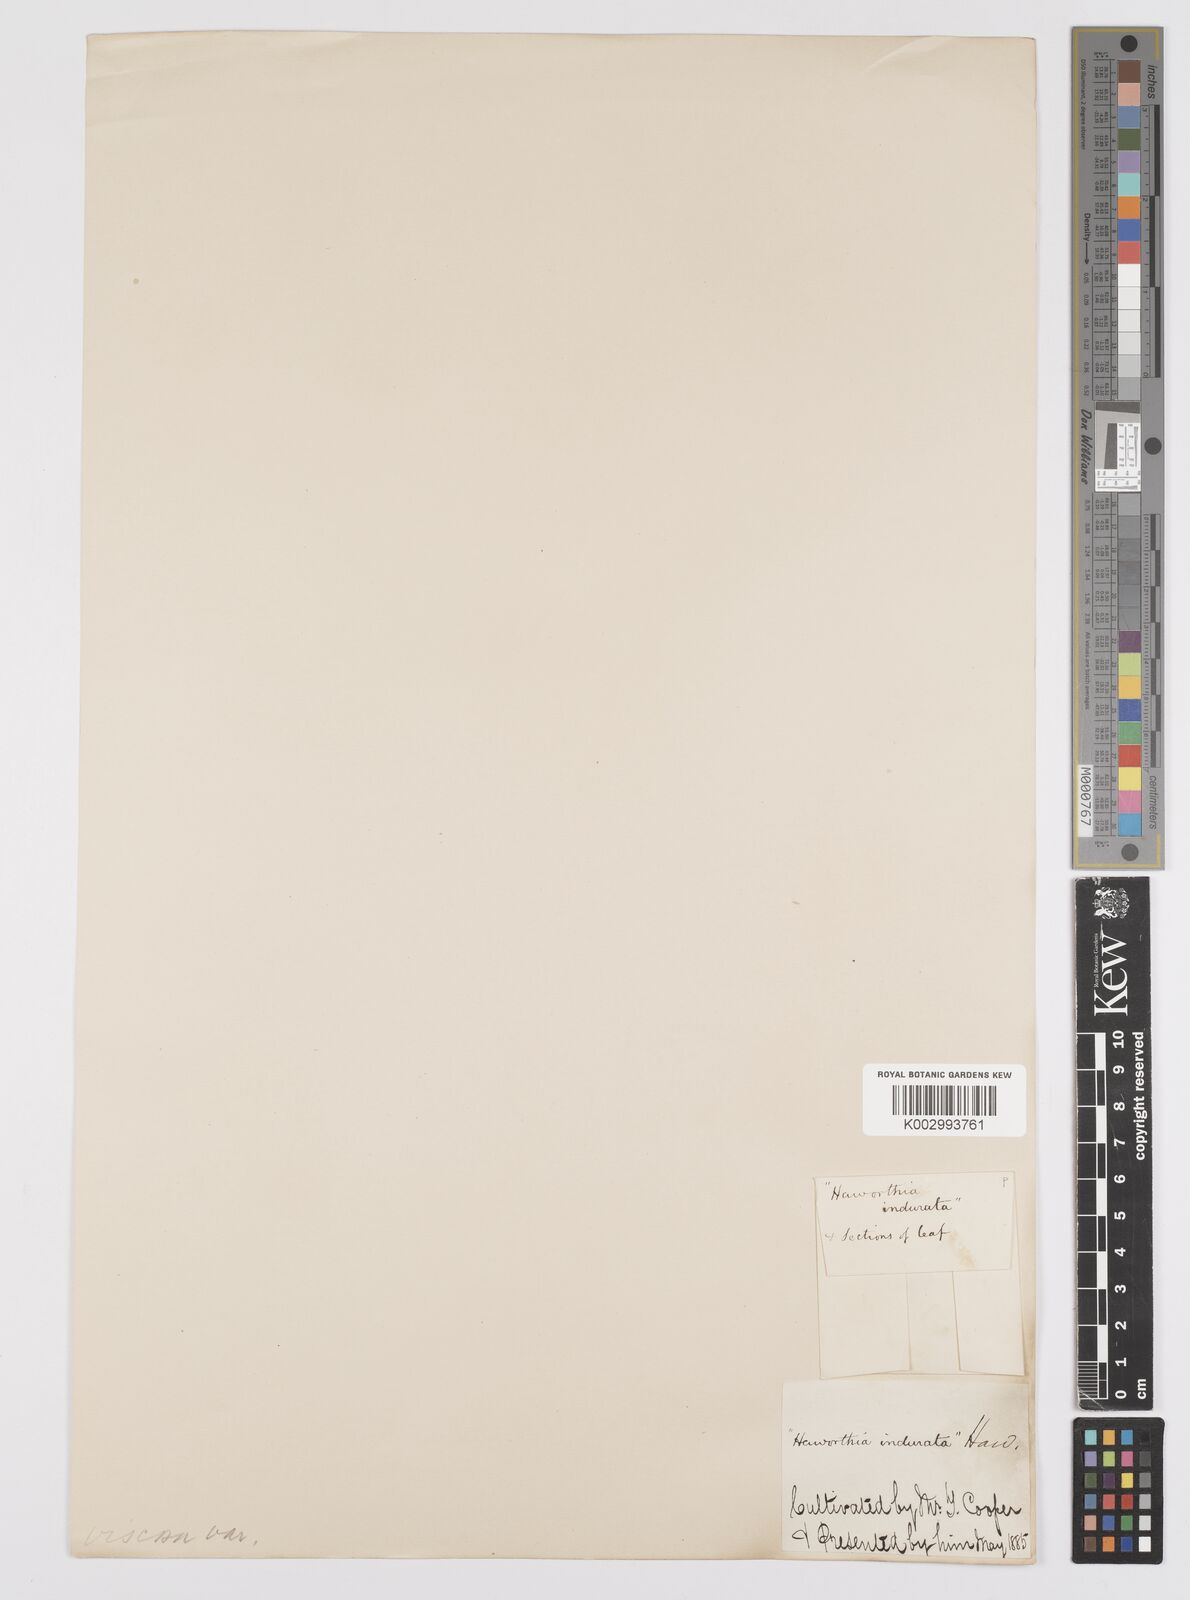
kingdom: Plantae
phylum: Tracheophyta
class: Liliopsida
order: Asparagales
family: Asphodelaceae
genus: Haworthiopsis
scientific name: Haworthiopsis viscosa
